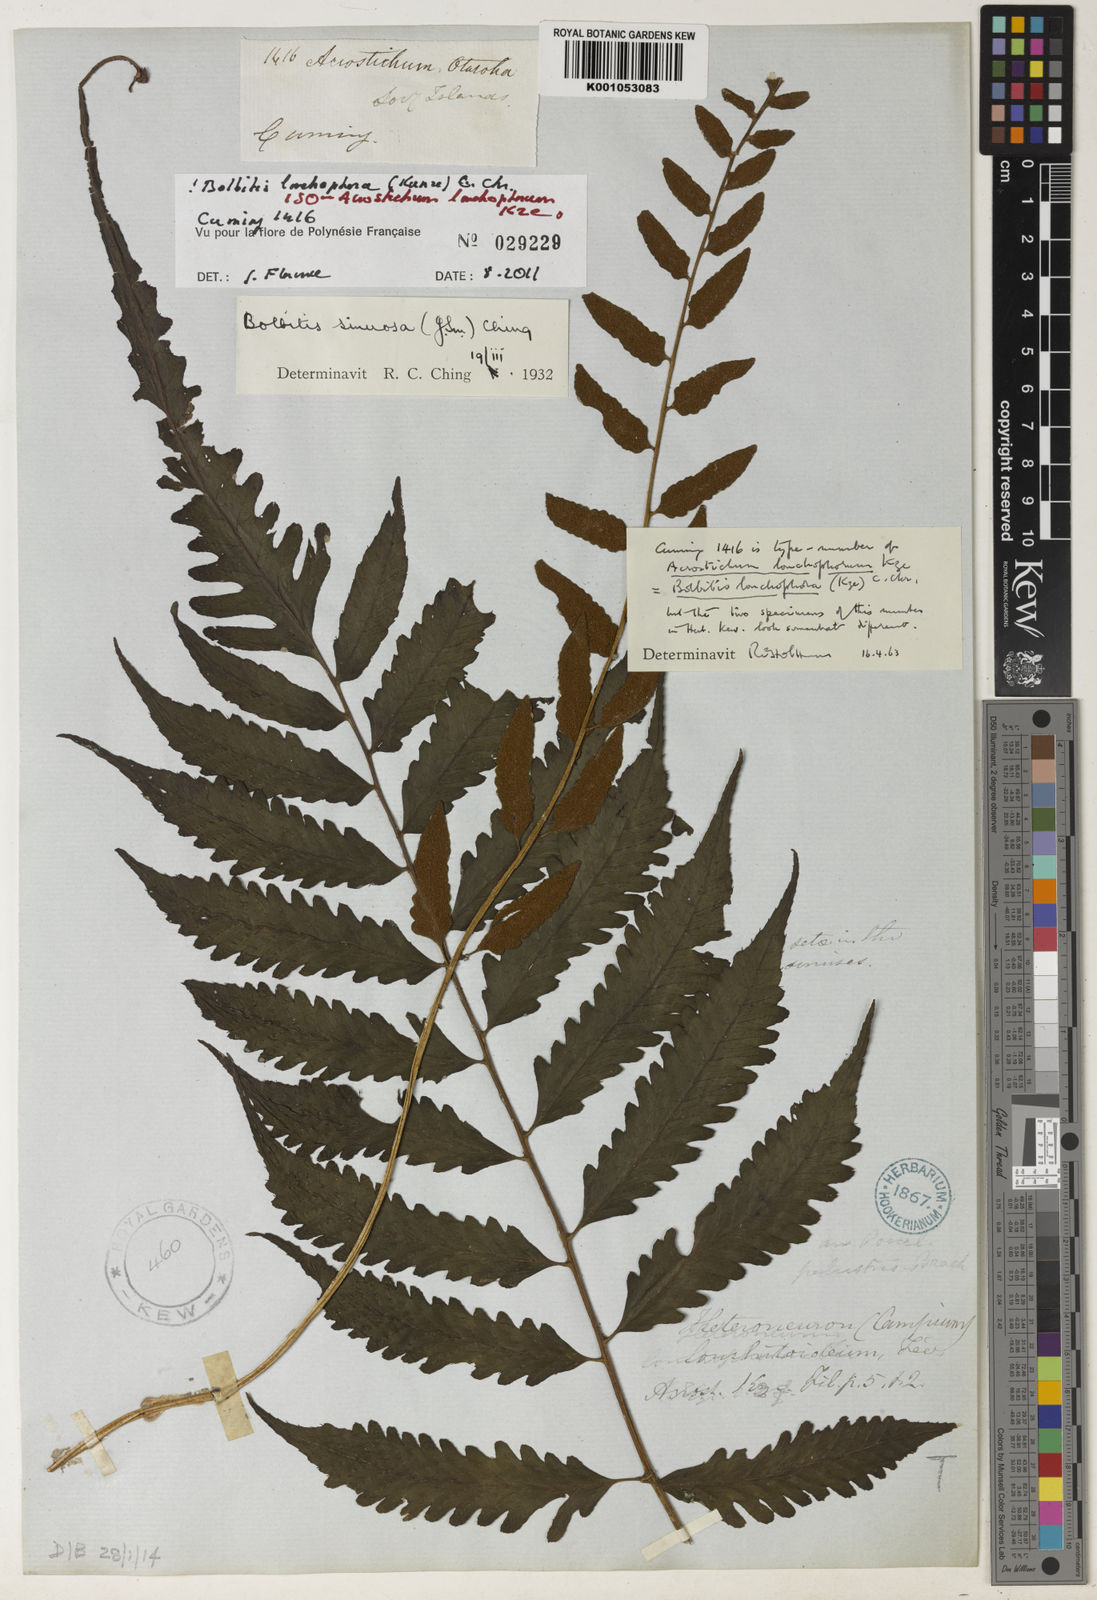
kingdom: Plantae
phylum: Tracheophyta
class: Polypodiopsida
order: Polypodiales
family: Dryopteridaceae
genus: Bolbitis
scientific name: Bolbitis lonchophora
